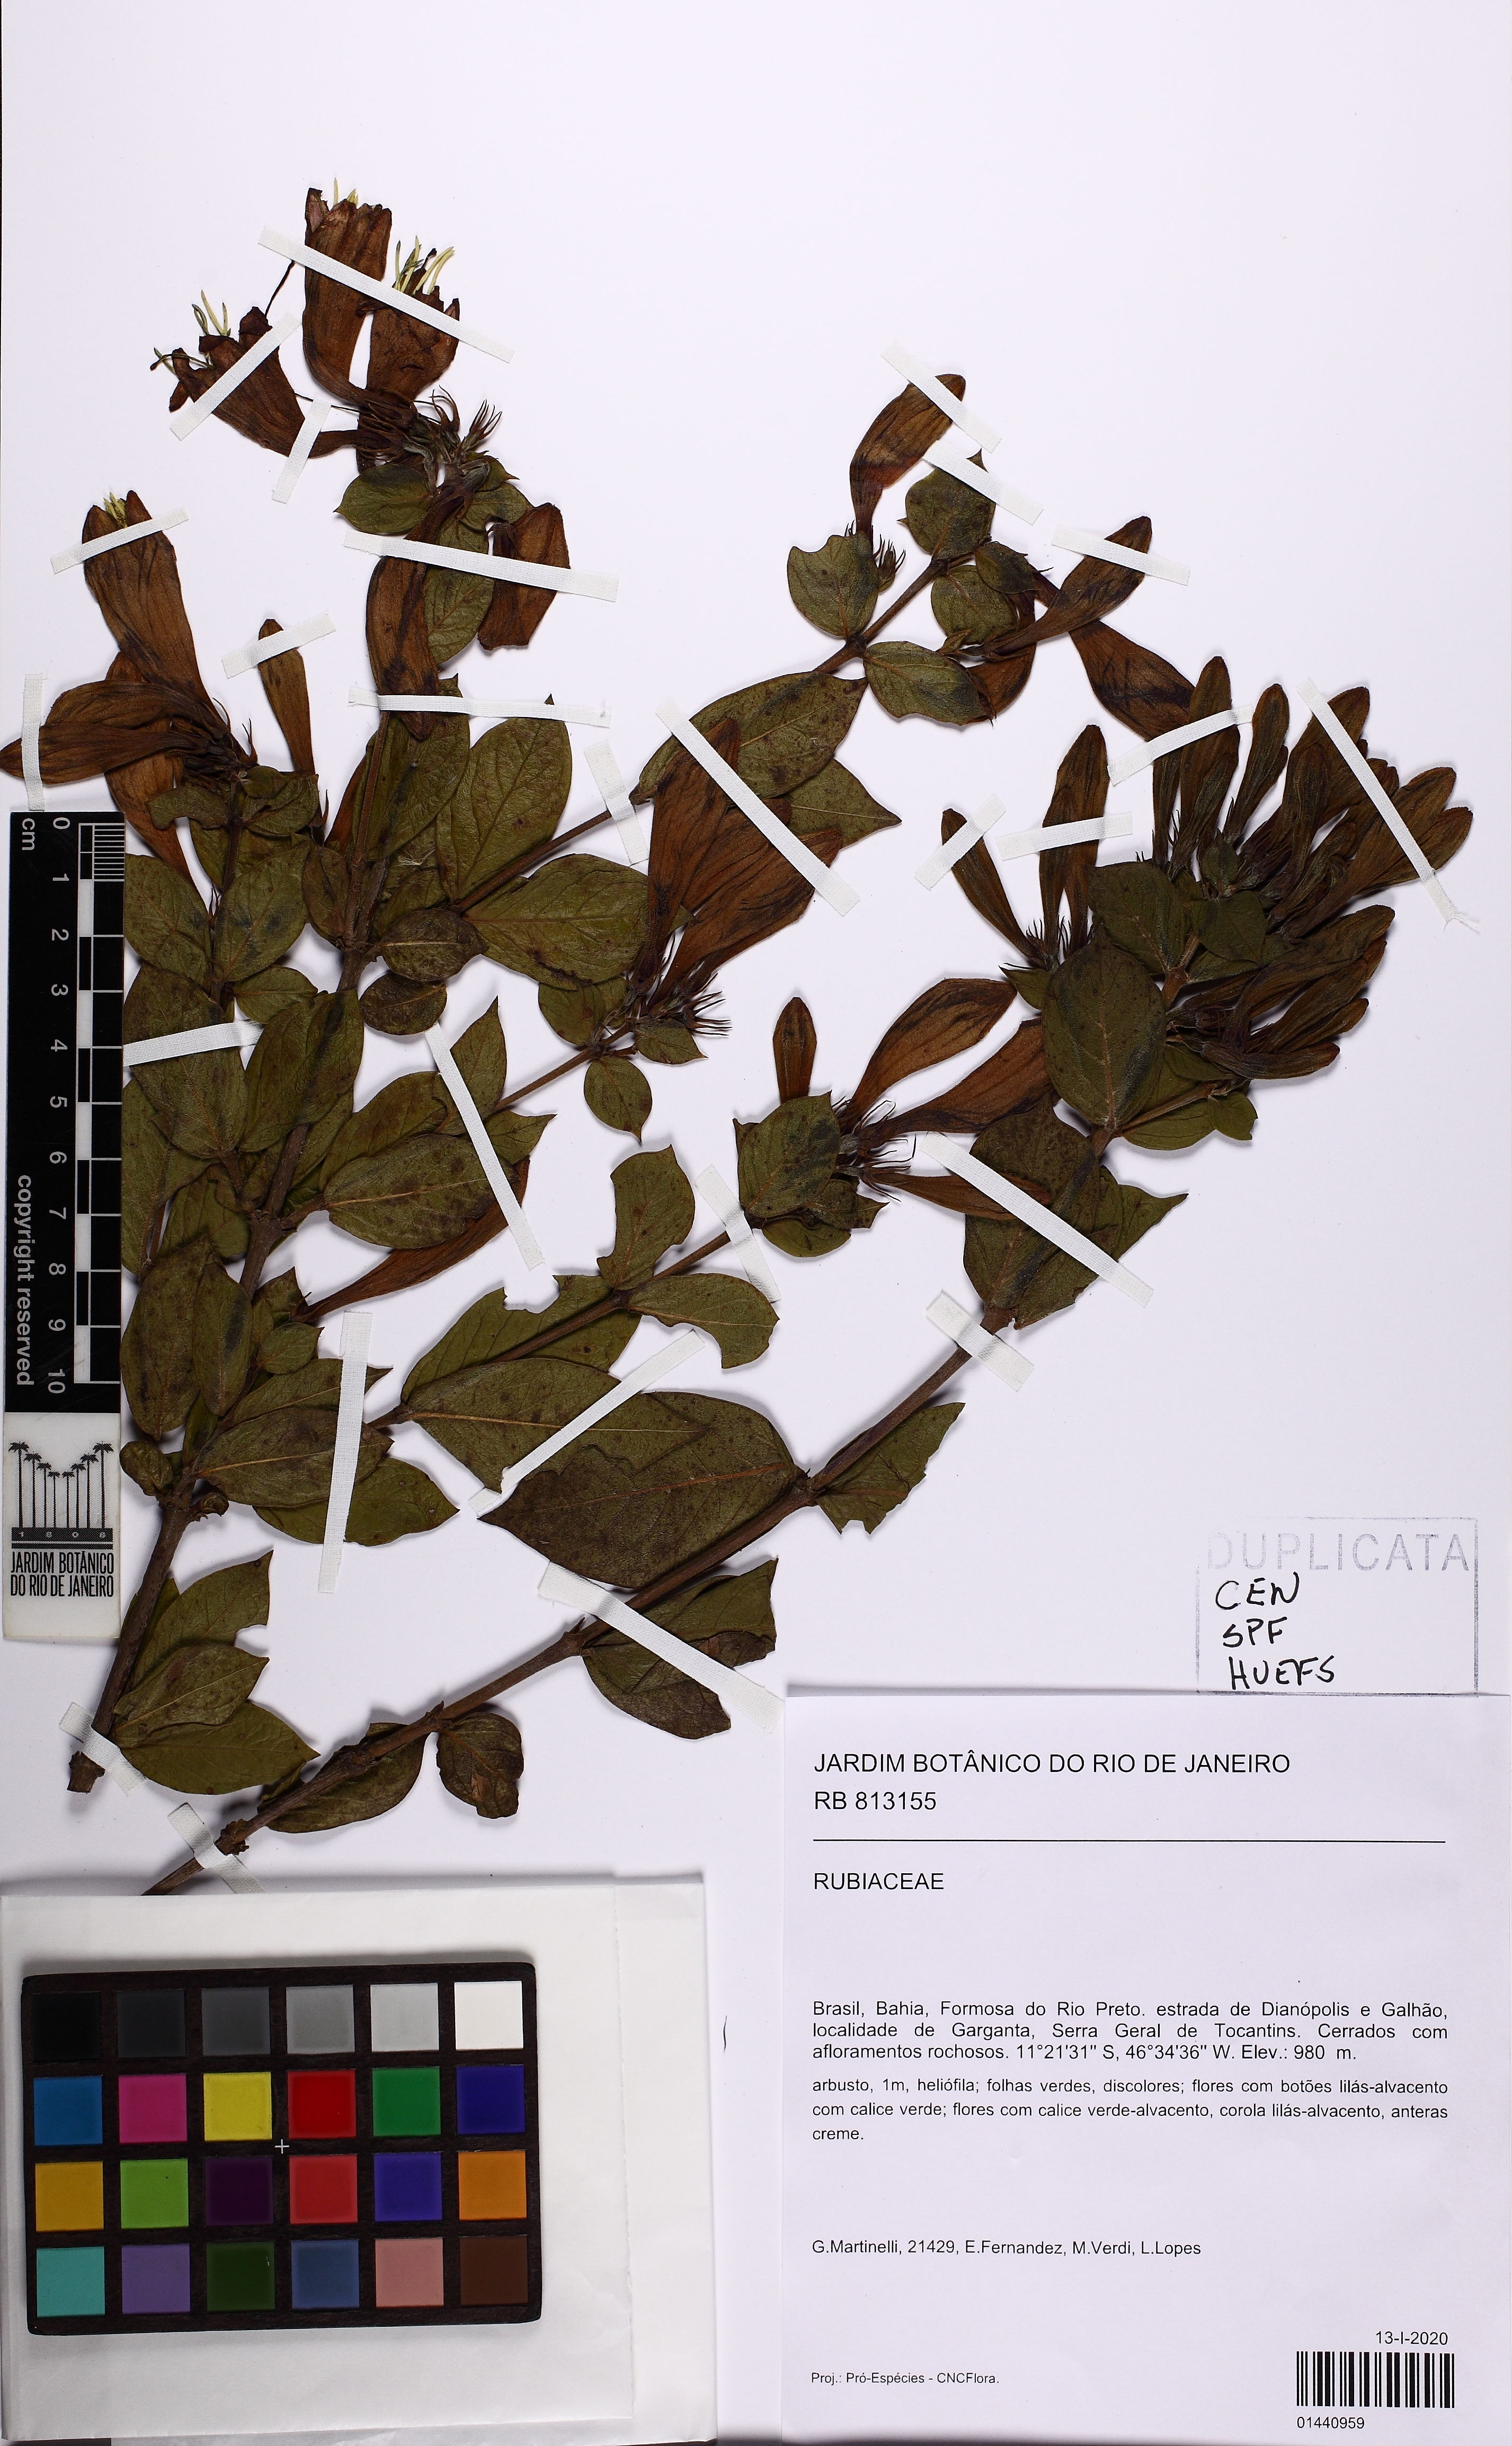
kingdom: Plantae
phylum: Tracheophyta
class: Magnoliopsida
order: Gentianales
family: Rubiaceae
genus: Coutarea
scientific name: Coutarea hexandra
